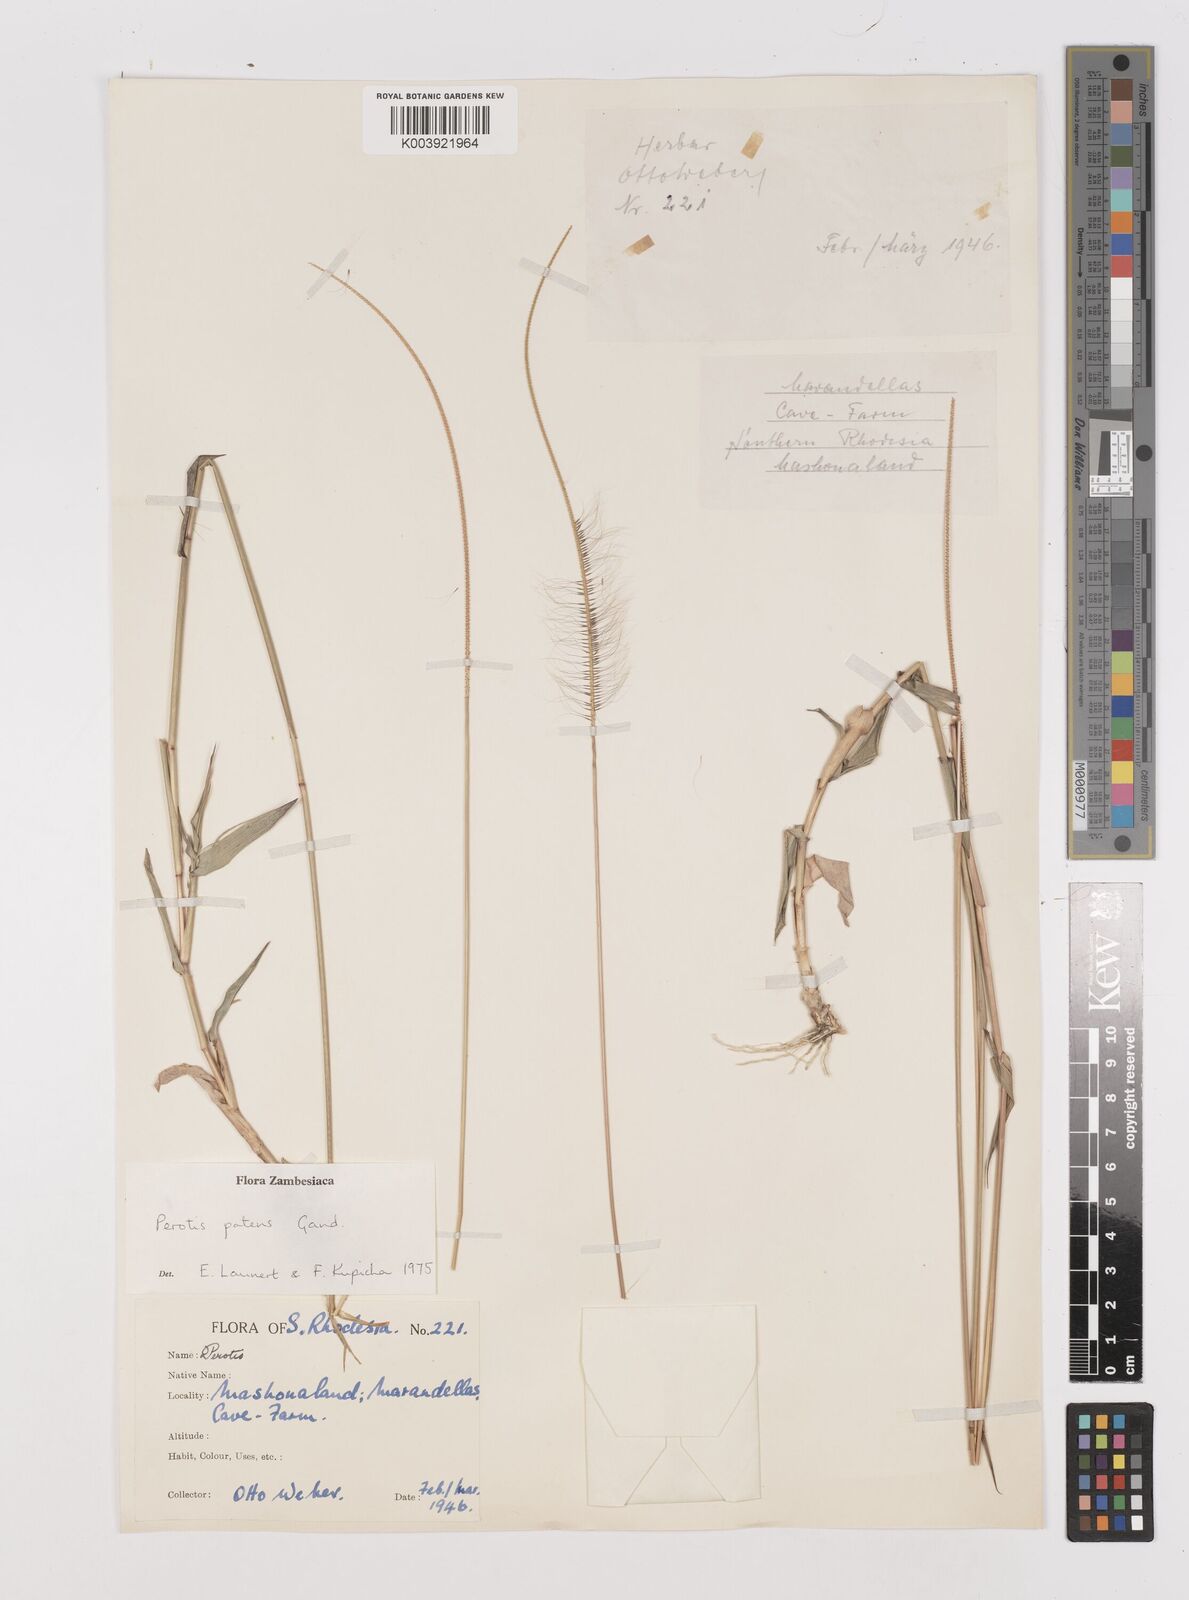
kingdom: Plantae
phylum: Tracheophyta
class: Liliopsida
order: Poales
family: Poaceae
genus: Perotis
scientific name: Perotis patens
